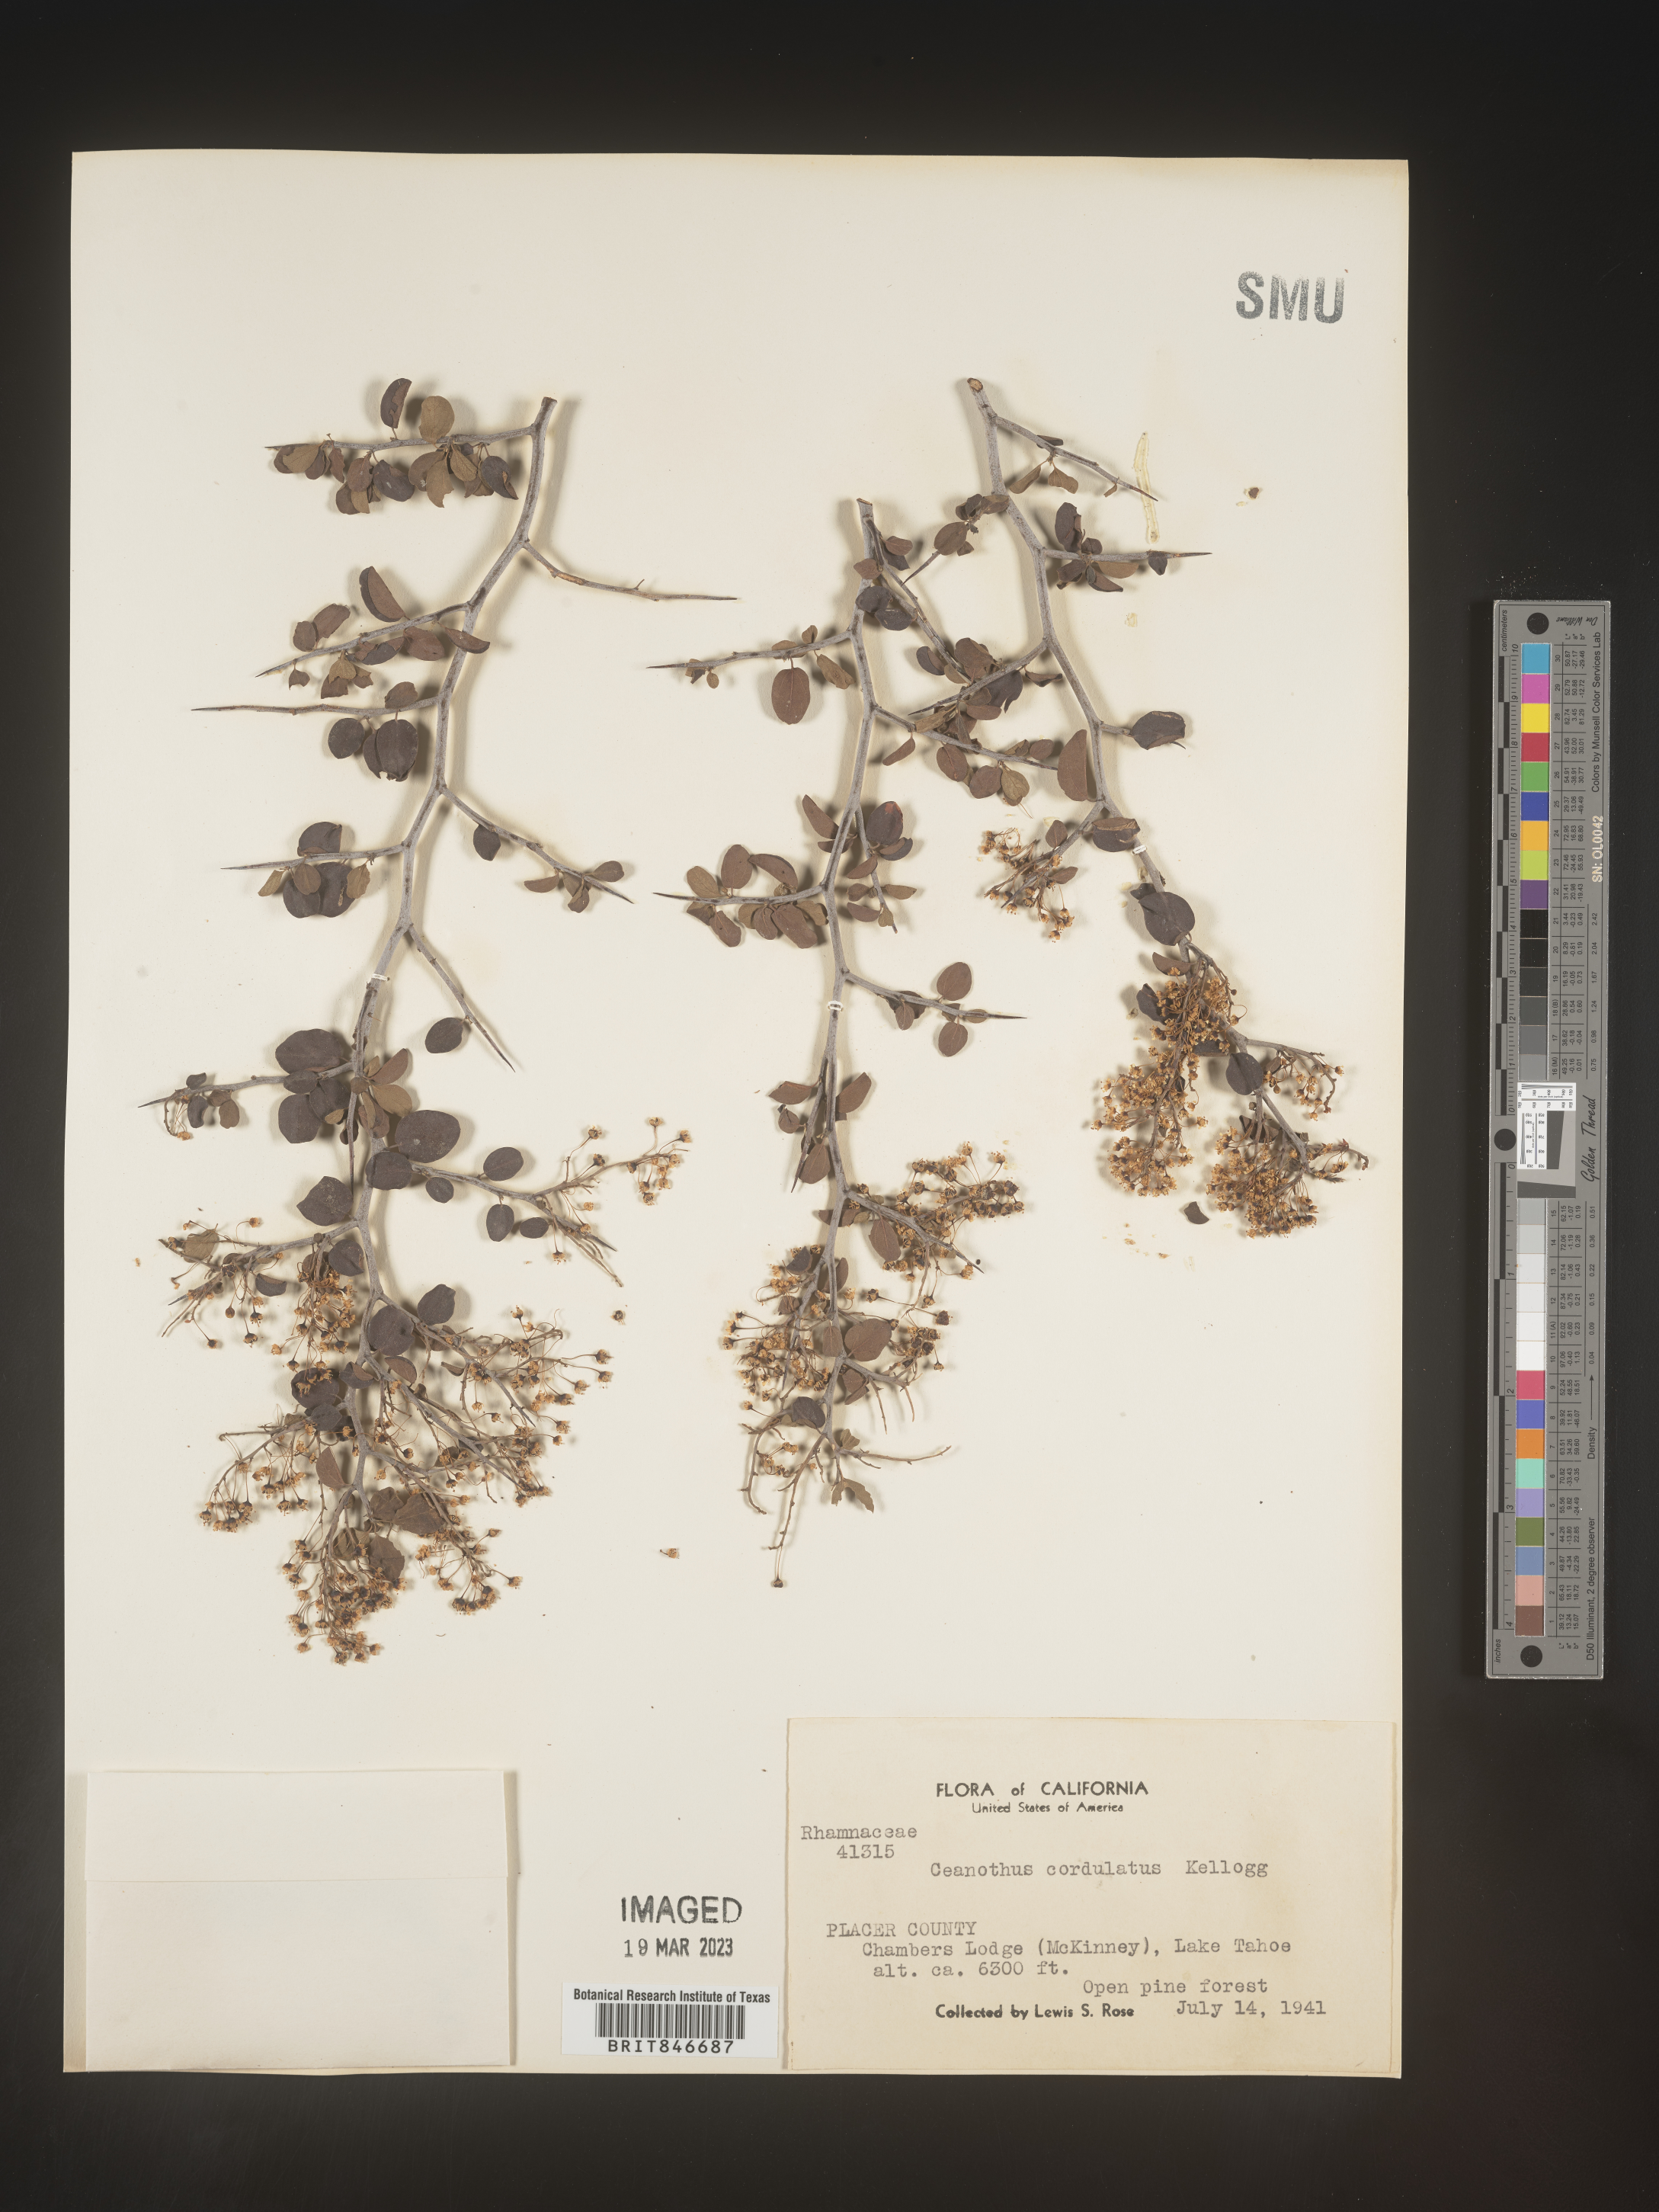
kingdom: Plantae
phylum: Tracheophyta
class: Magnoliopsida
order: Rosales
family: Rhamnaceae
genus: Ceanothus
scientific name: Ceanothus
